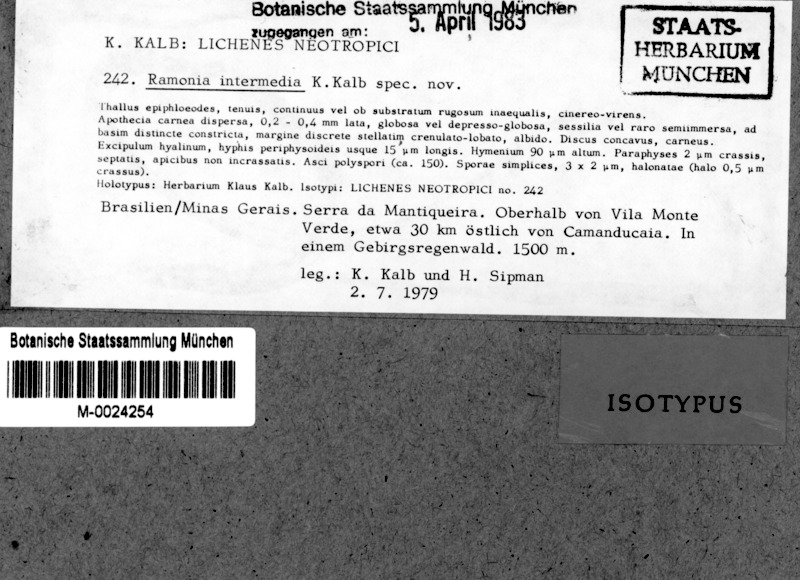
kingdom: Fungi
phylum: Ascomycota
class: Lecanoromycetes
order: Gyalectales
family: Gyalectaceae
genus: Ramonia
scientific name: Ramonia intermedia
